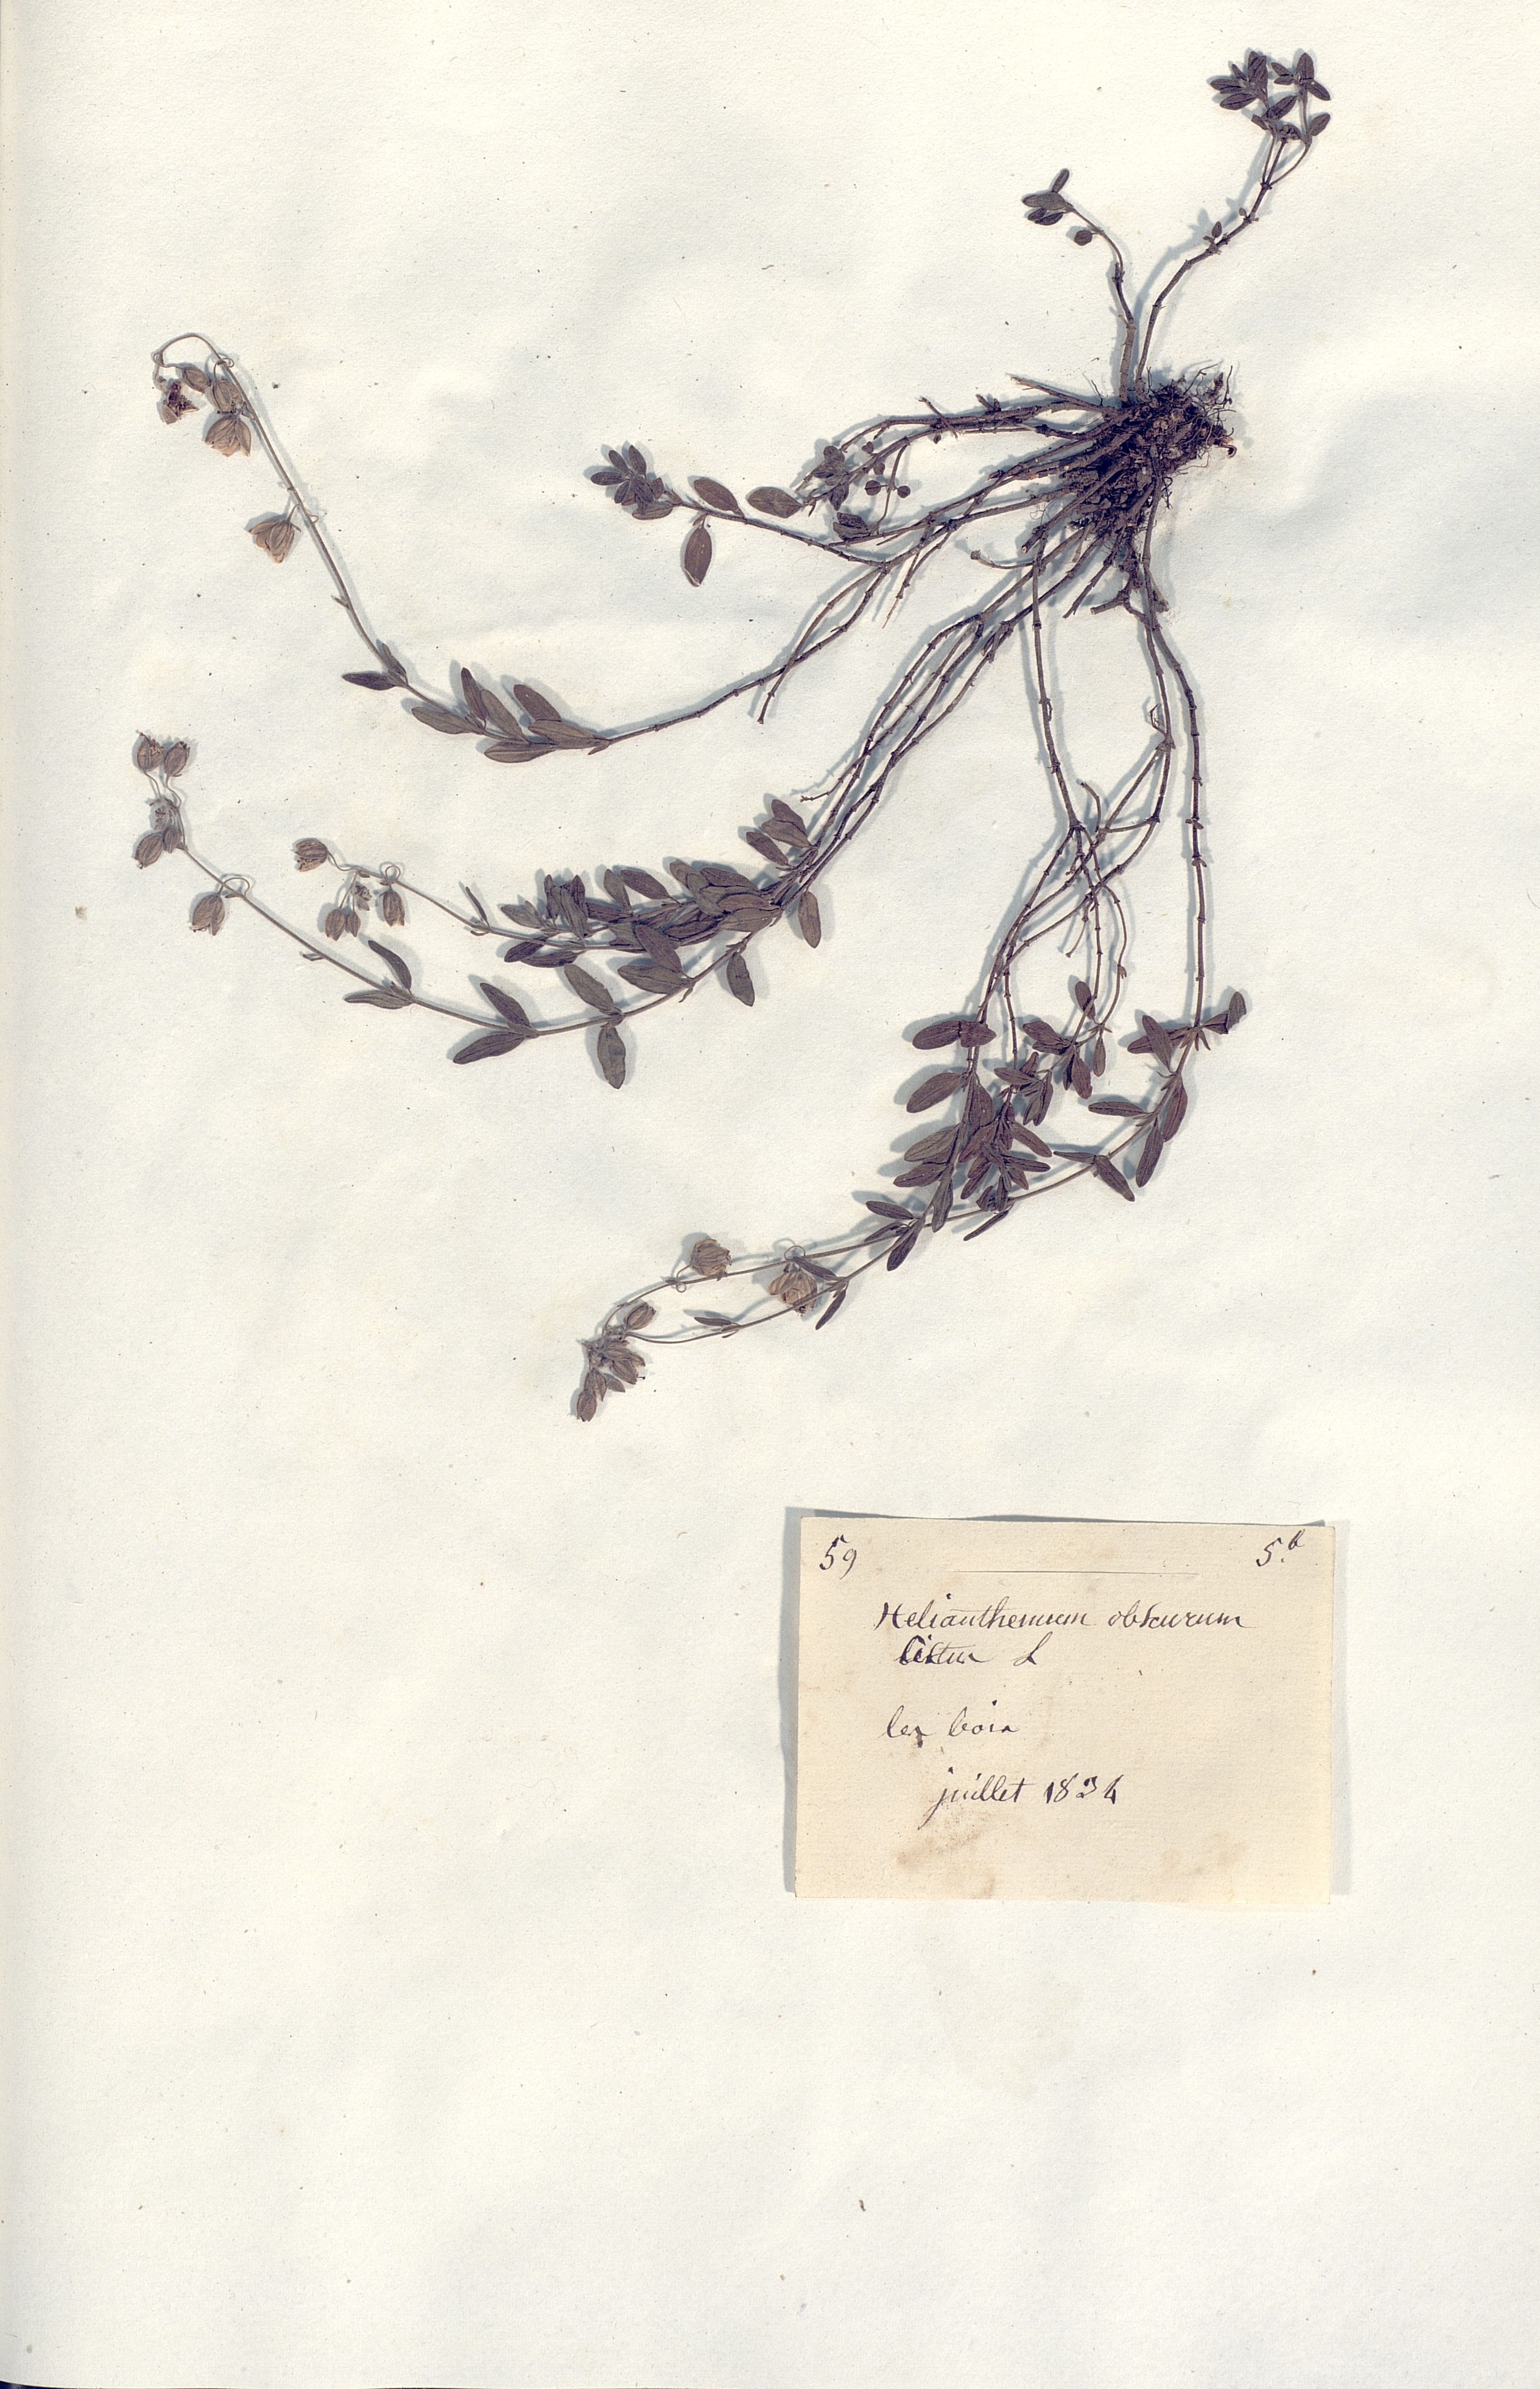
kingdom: Plantae
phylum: Tracheophyta
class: Magnoliopsida
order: Malvales
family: Cistaceae
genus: Helianthemum
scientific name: Helianthemum nummularium
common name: Common rock-rose
